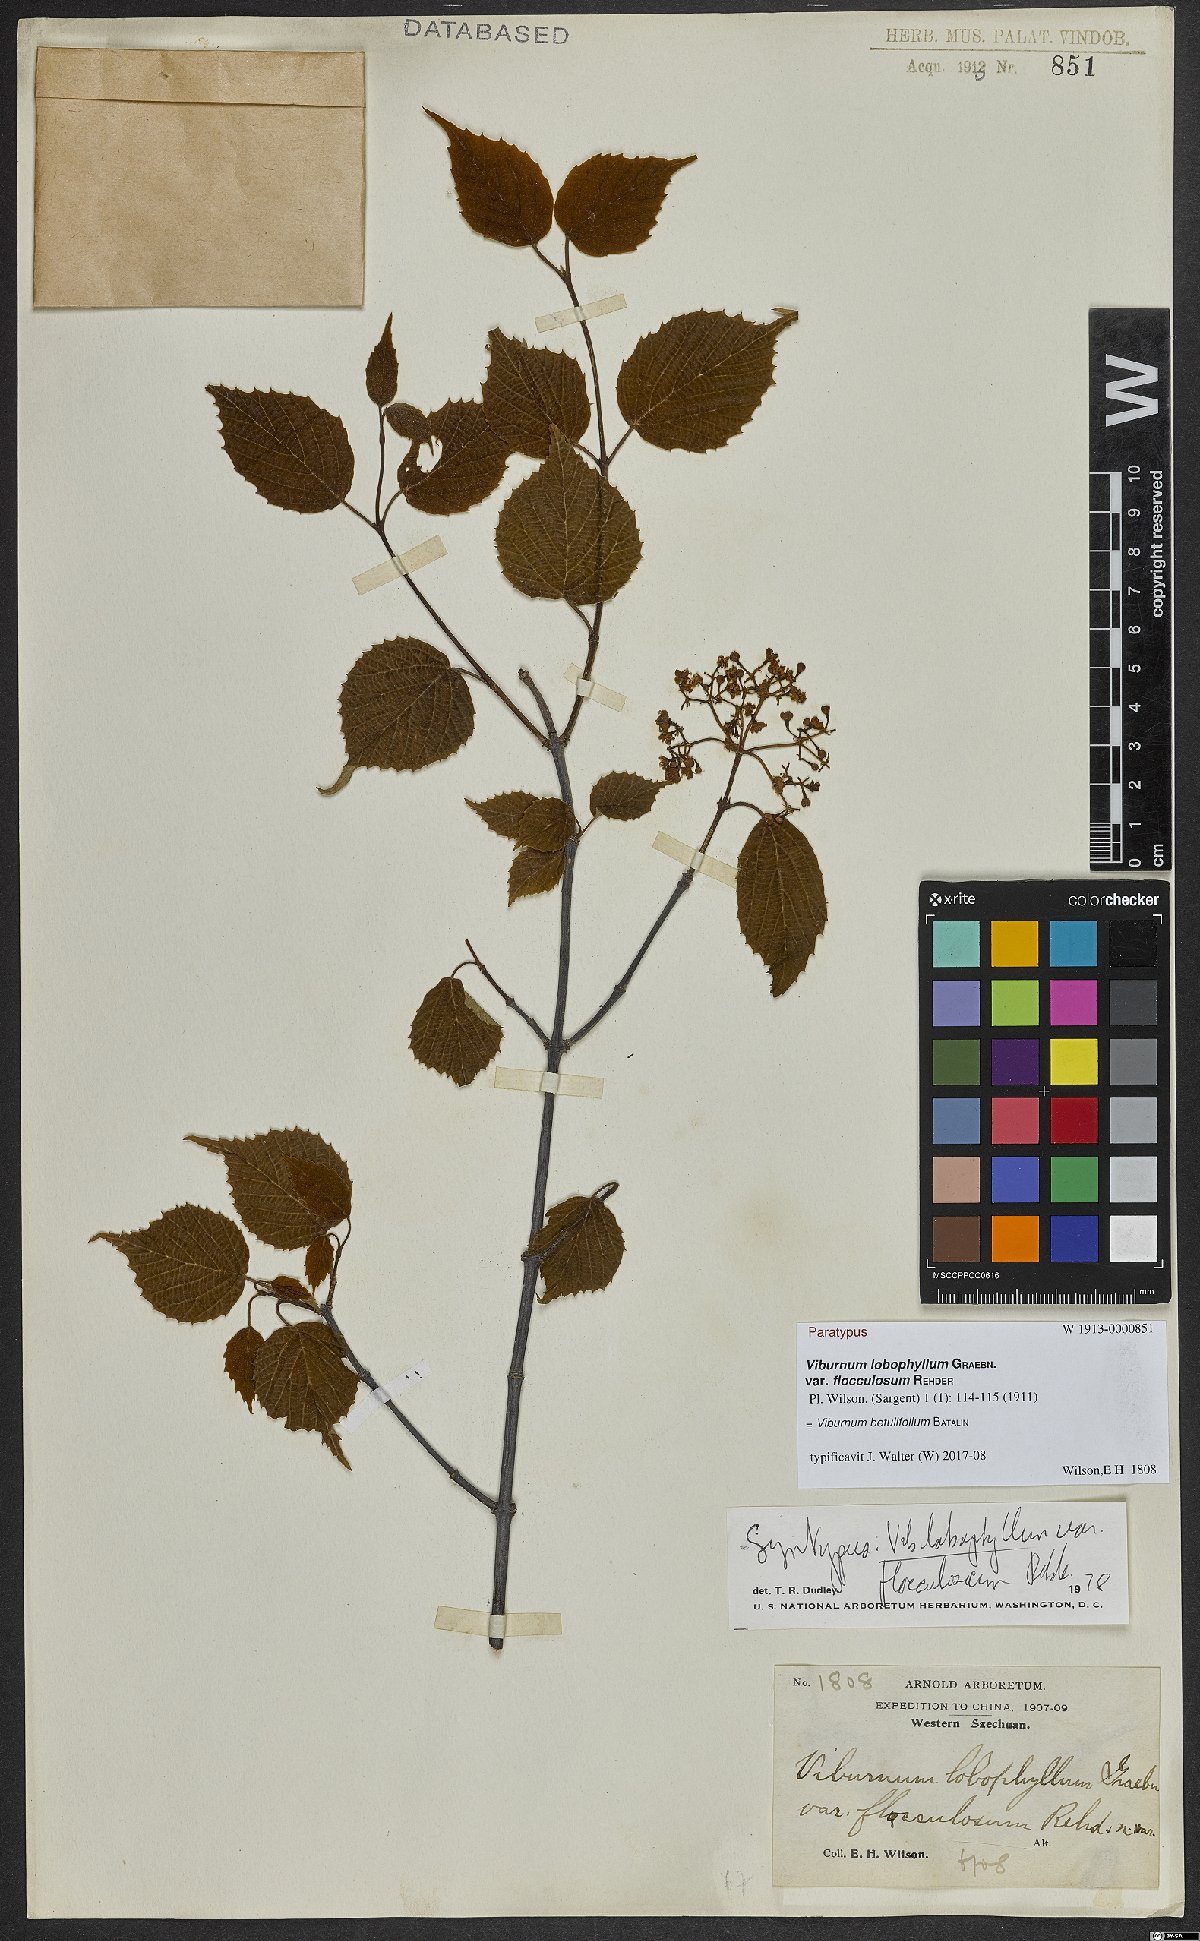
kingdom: Plantae
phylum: Tracheophyta
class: Magnoliopsida
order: Dipsacales
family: Viburnaceae
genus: Viburnum
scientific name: Viburnum betulifolium
